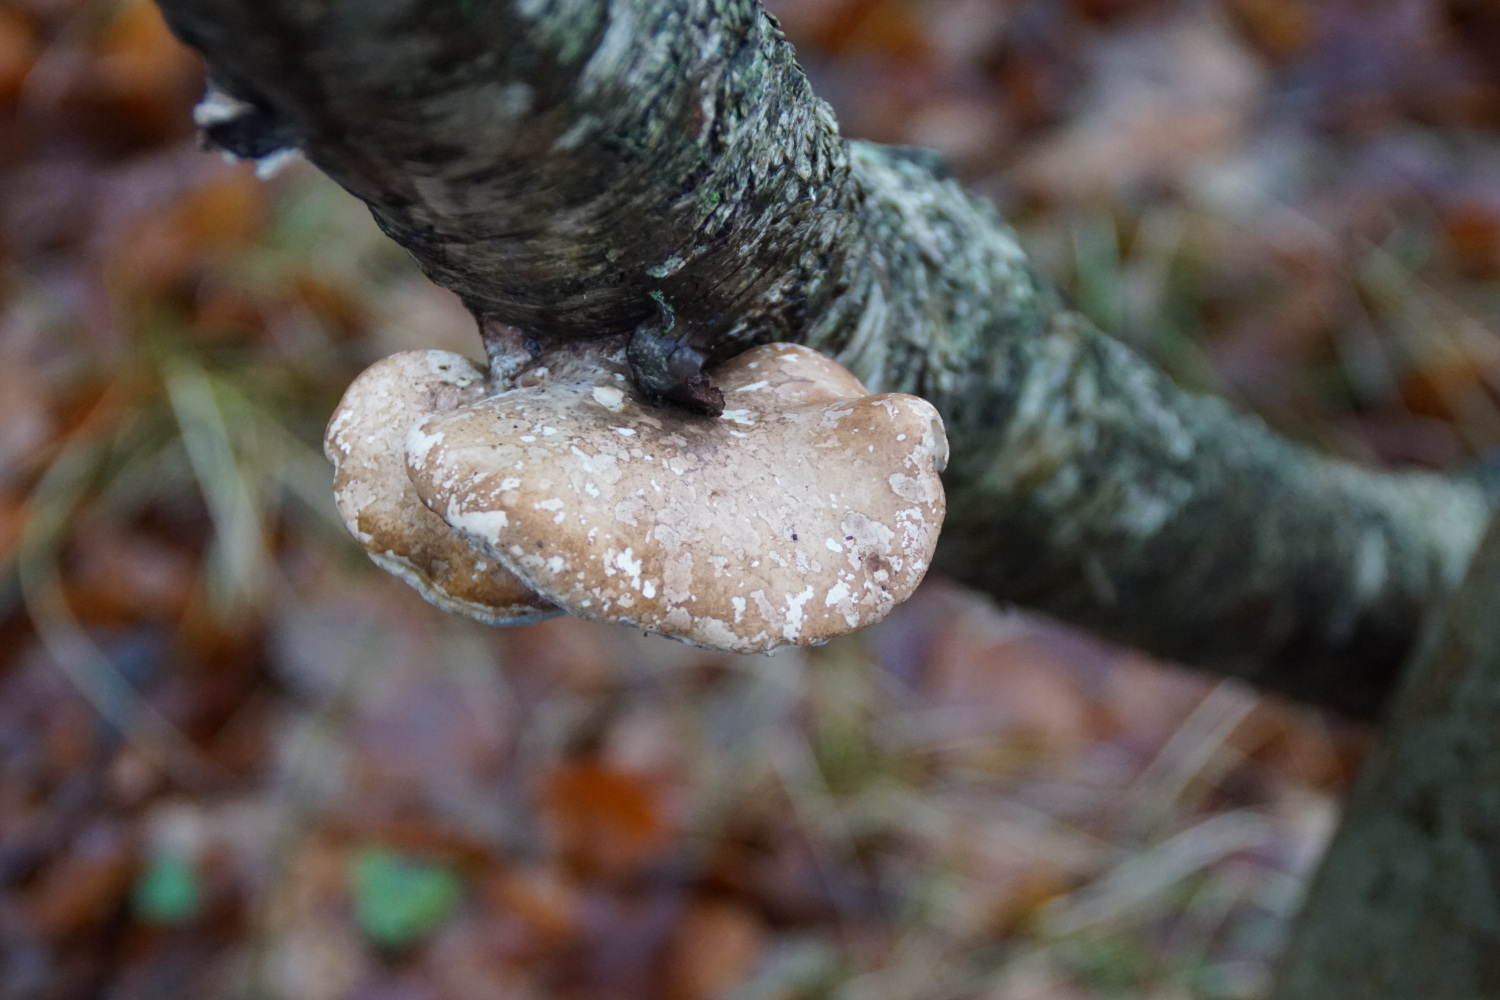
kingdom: Fungi
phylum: Basidiomycota
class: Agaricomycetes
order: Polyporales
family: Fomitopsidaceae
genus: Fomitopsis
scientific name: Fomitopsis betulina
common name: birkeporesvamp
